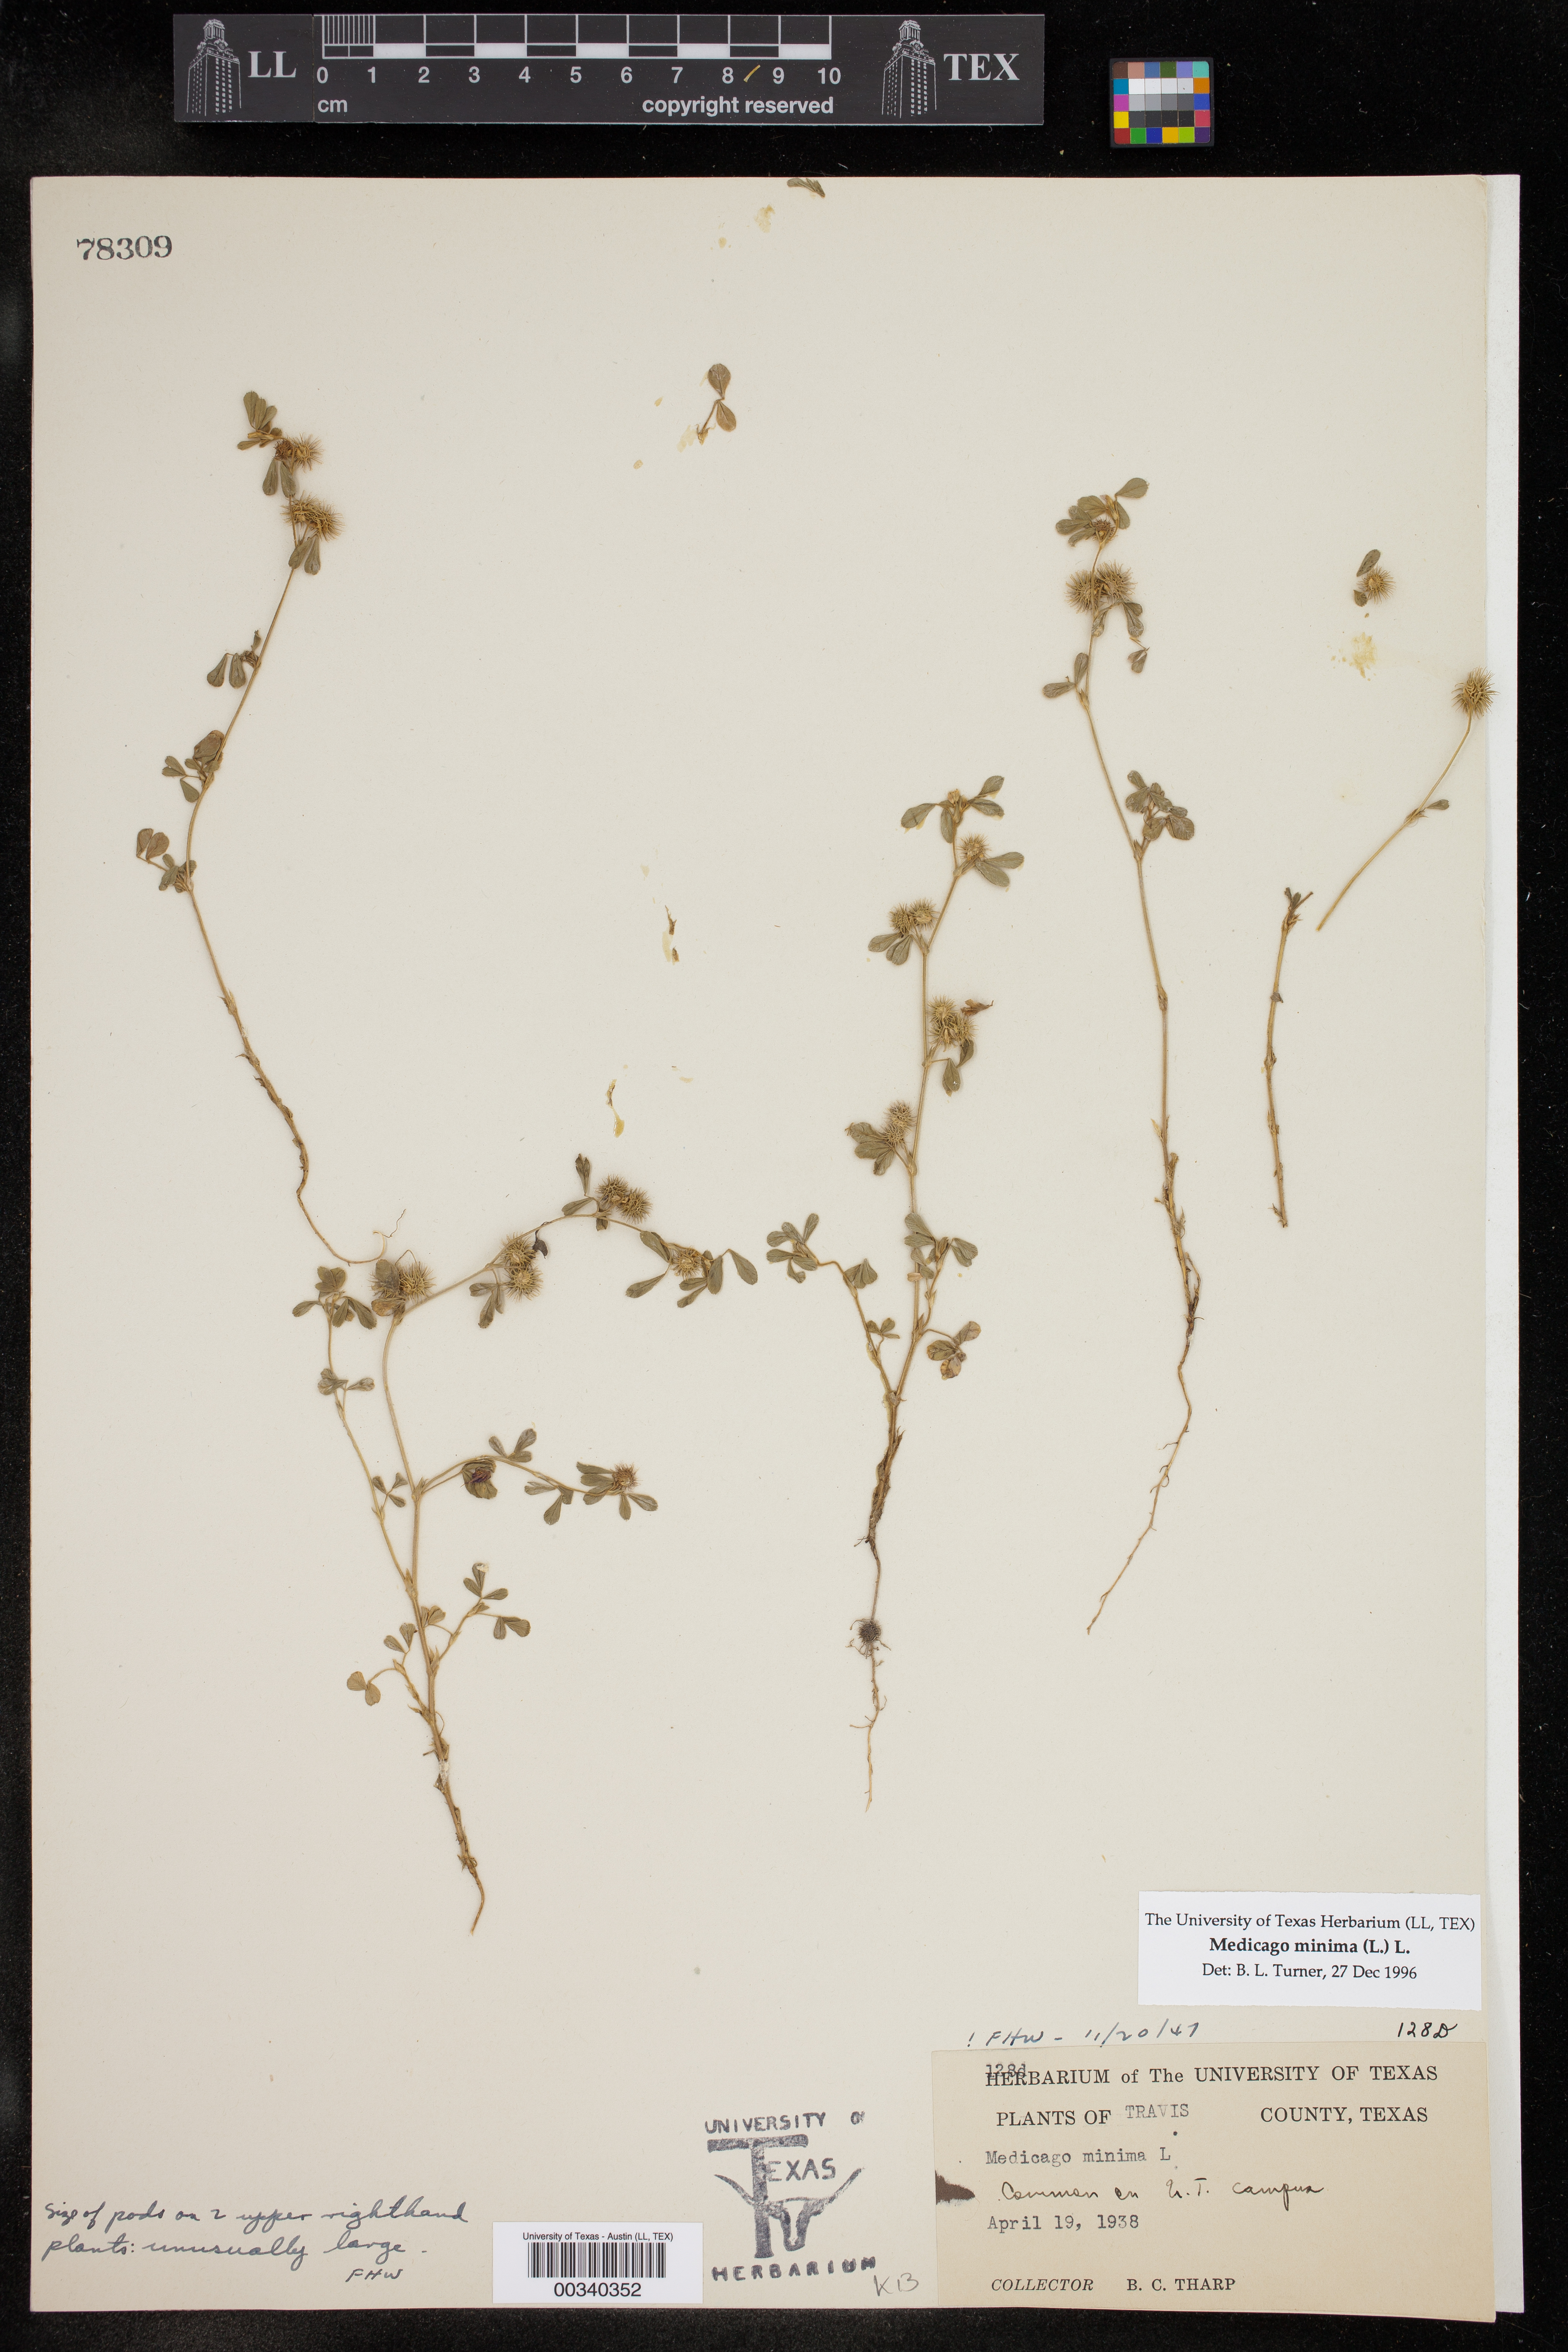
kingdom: Plantae
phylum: Tracheophyta
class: Magnoliopsida
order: Fabales
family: Fabaceae
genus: Medicago
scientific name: Medicago minima
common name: Little bur-clover
